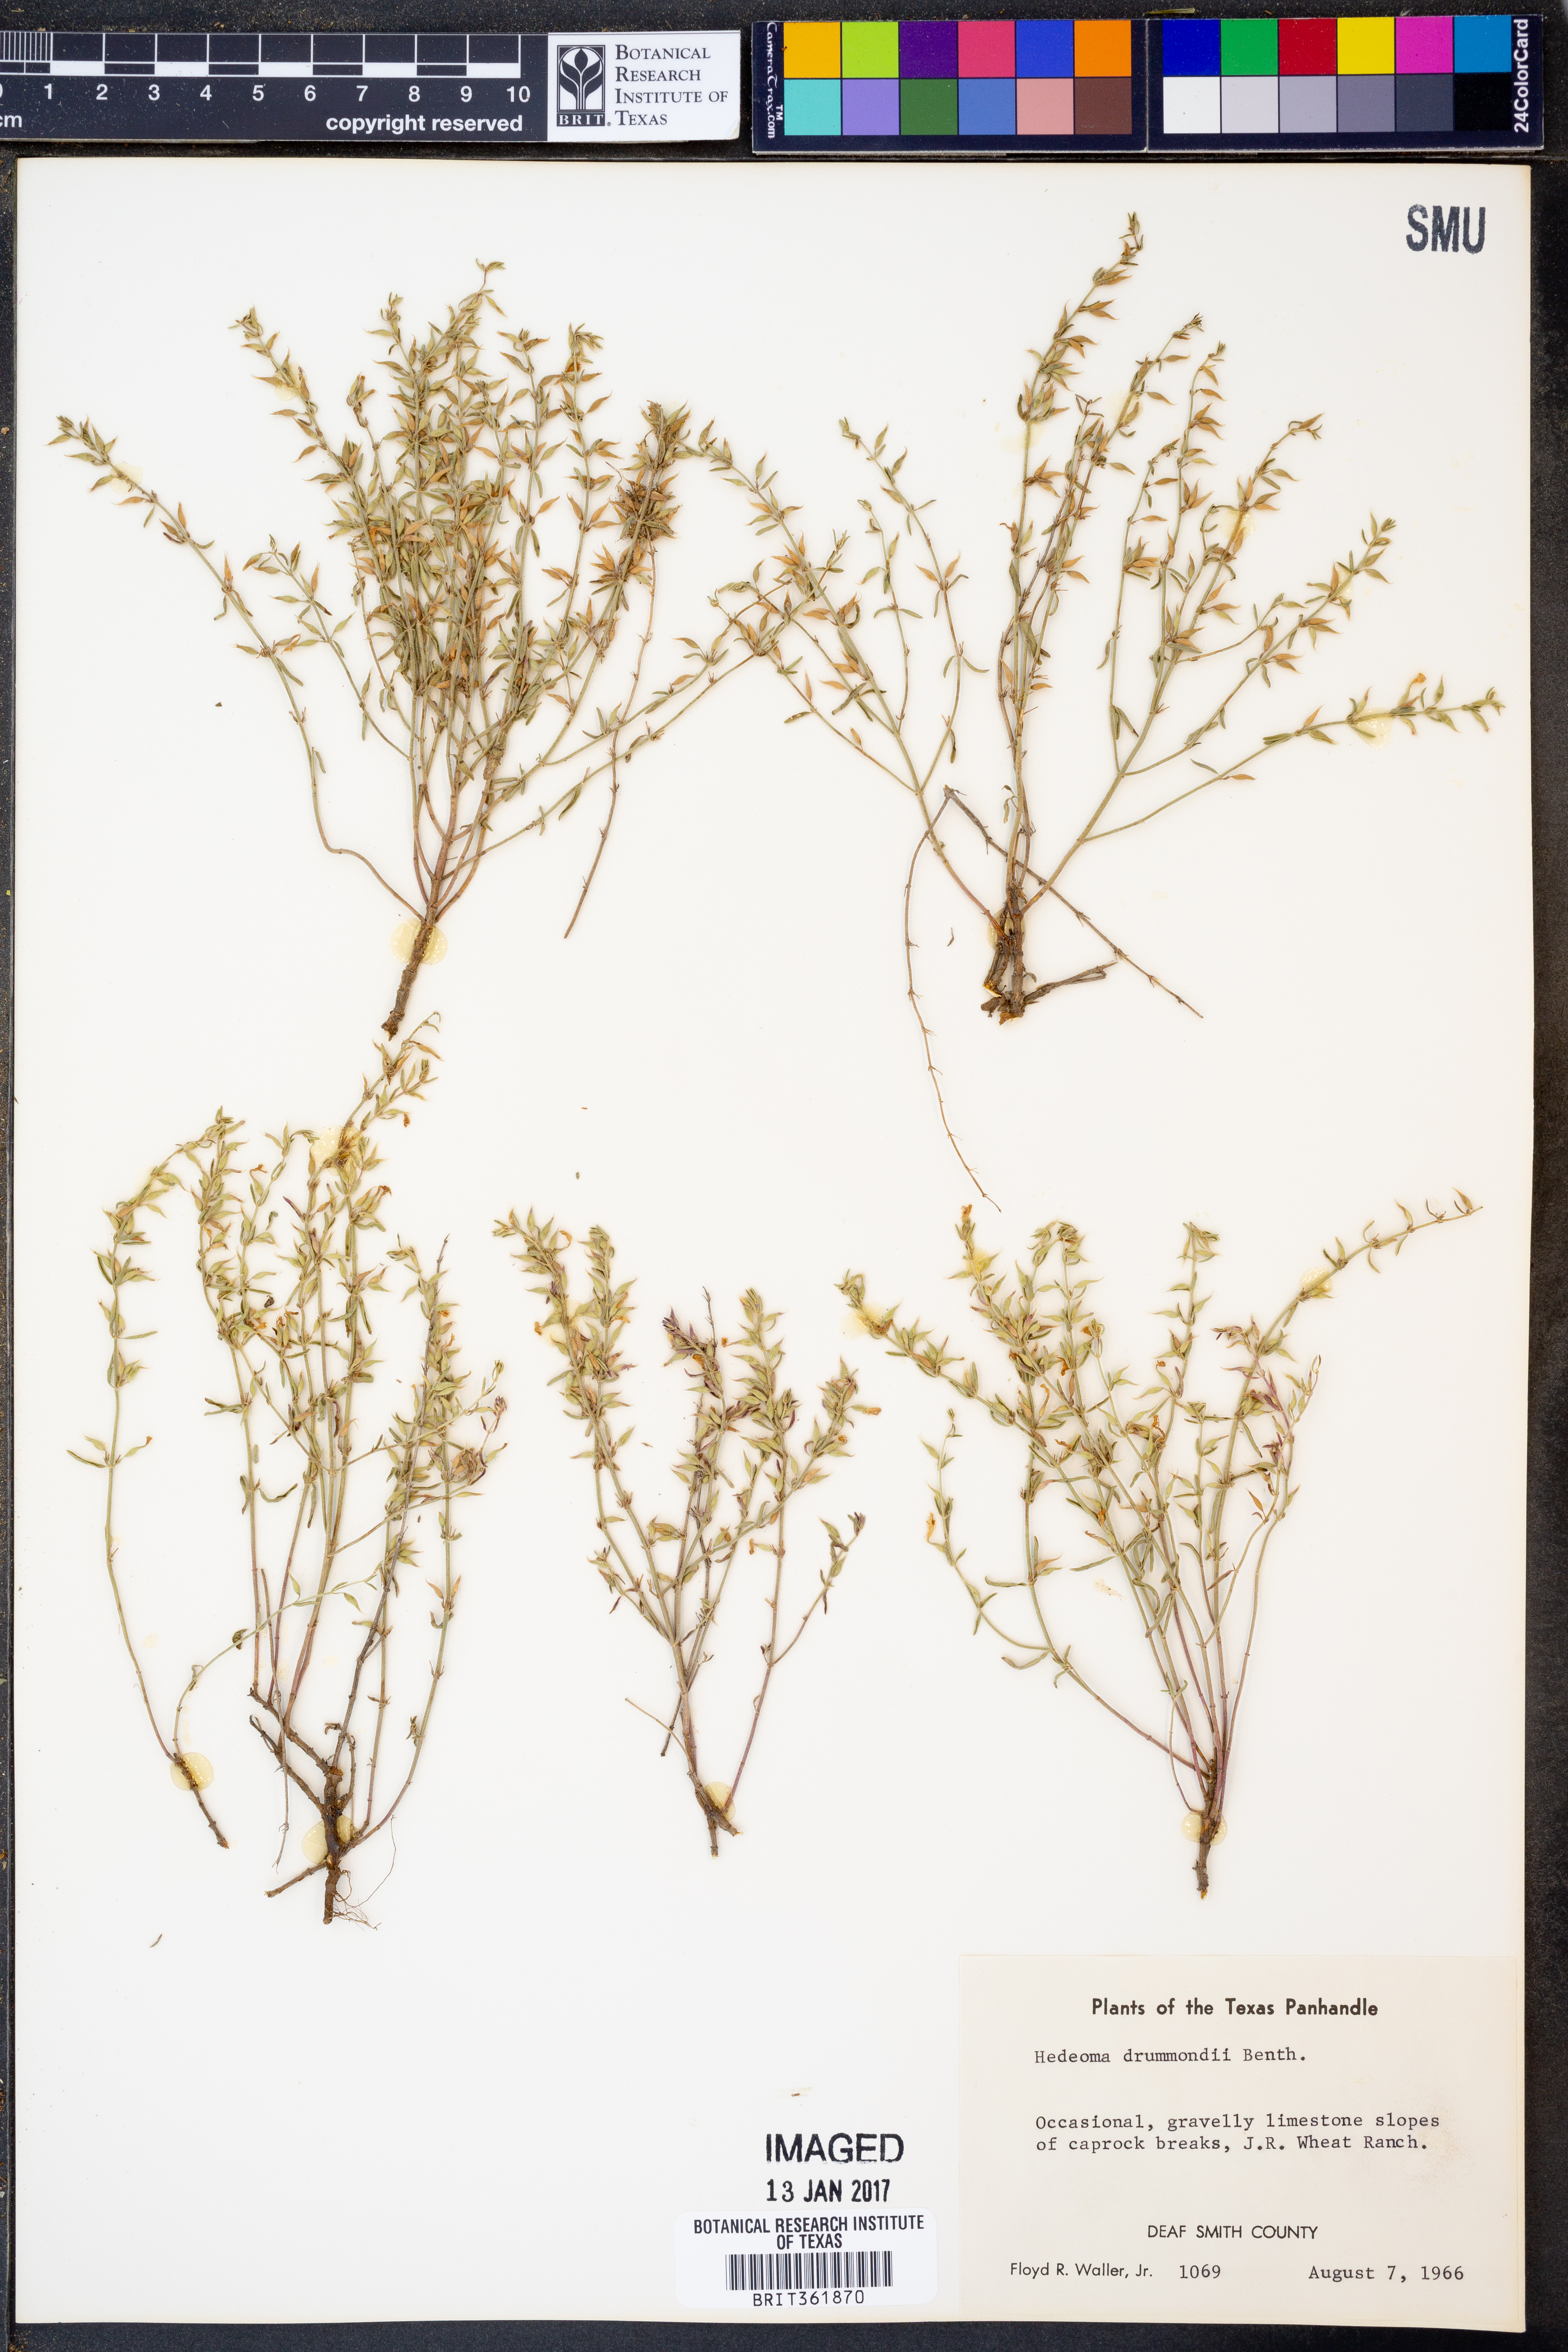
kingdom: Plantae
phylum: Tracheophyta
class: Magnoliopsida
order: Lamiales
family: Lamiaceae
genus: Hedeoma
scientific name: Hedeoma drummondii
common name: New mexico pennyroyal
